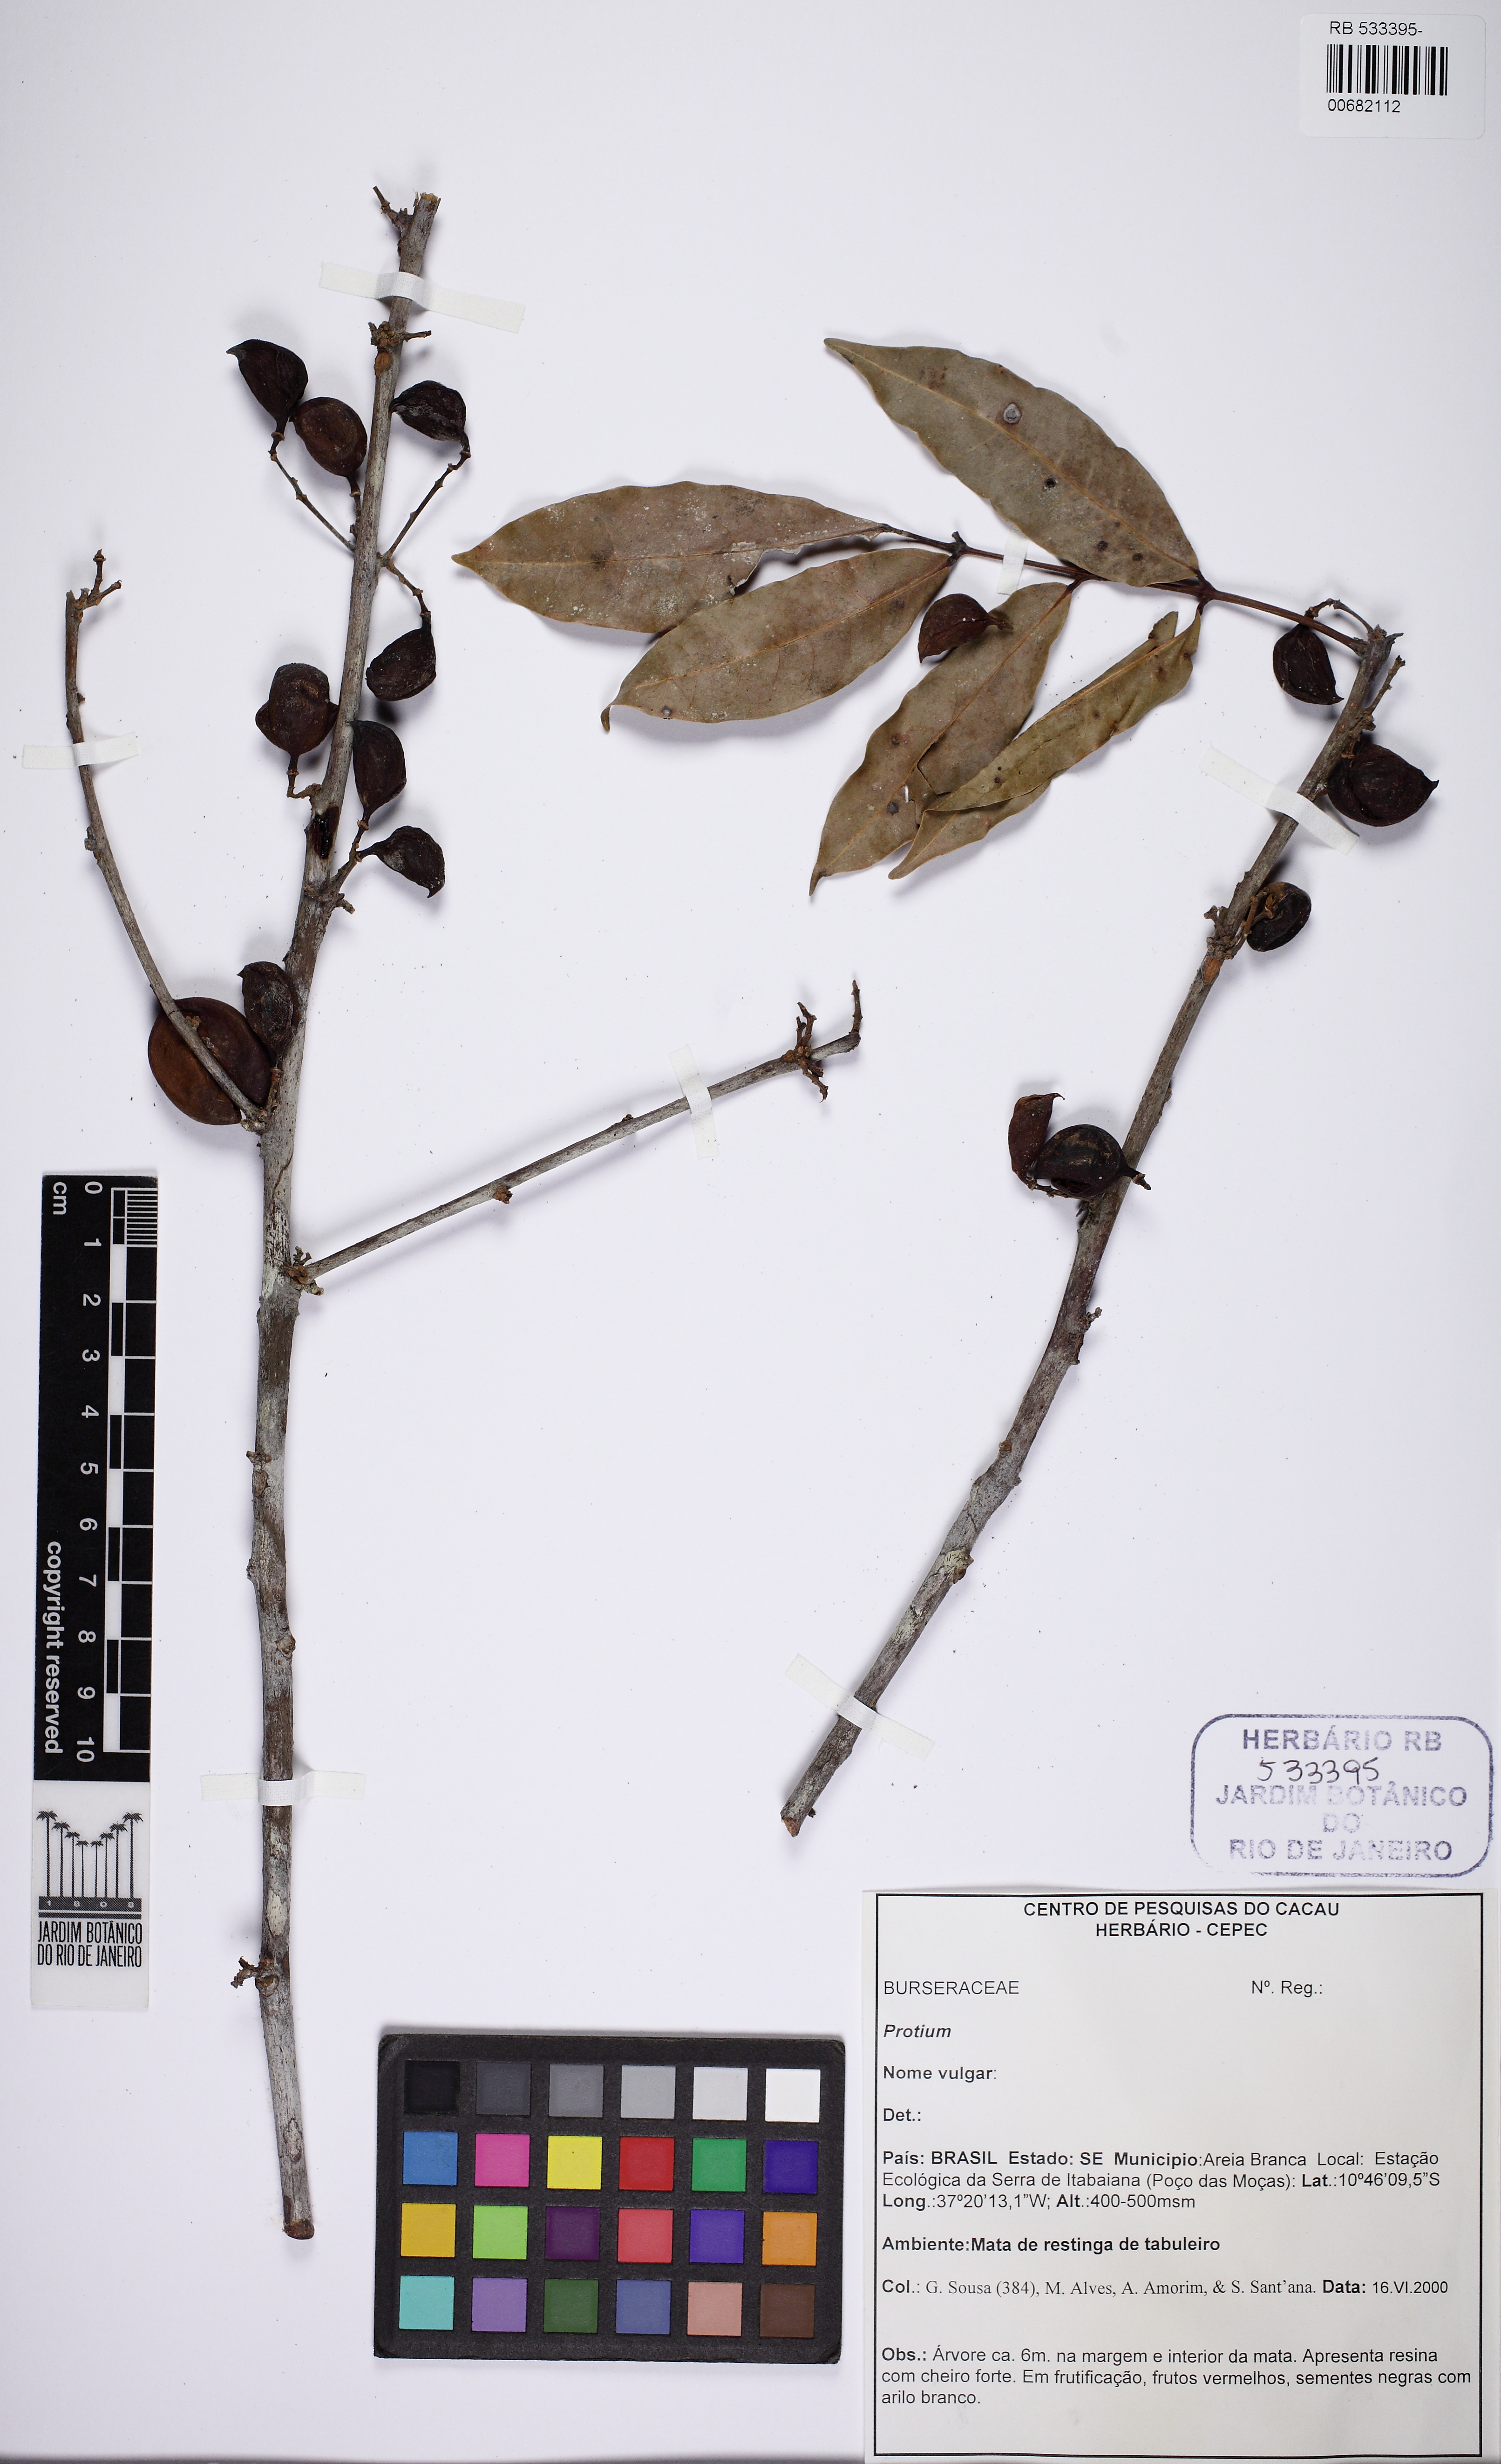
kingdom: Plantae
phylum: Tracheophyta
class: Magnoliopsida
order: Sapindales
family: Burseraceae
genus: Protium
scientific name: Protium heptaphyllum
